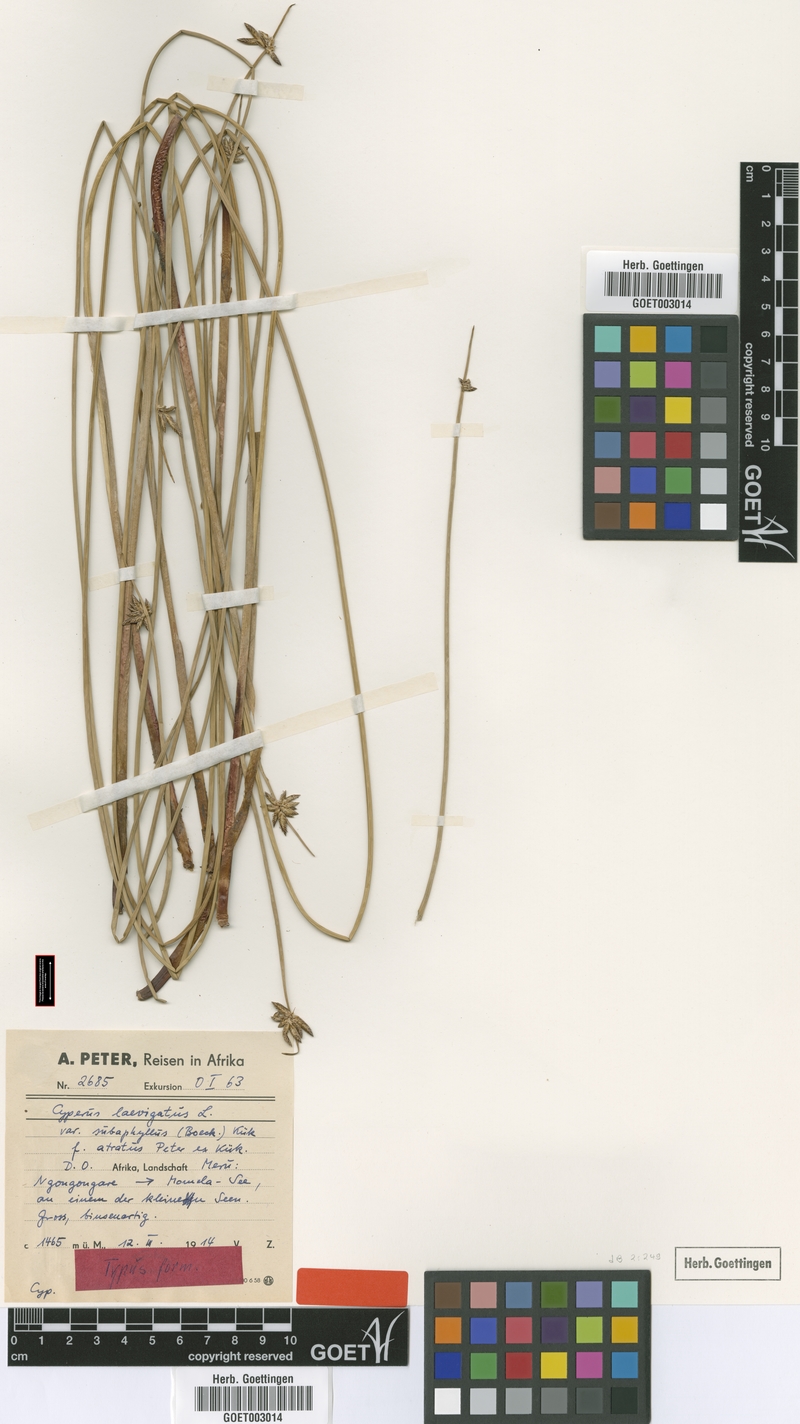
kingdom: Plantae
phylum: Tracheophyta
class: Liliopsida
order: Poales
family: Cyperaceae
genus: Cyperus
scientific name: Cyperus laevigatus
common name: Smooth flat sedge
